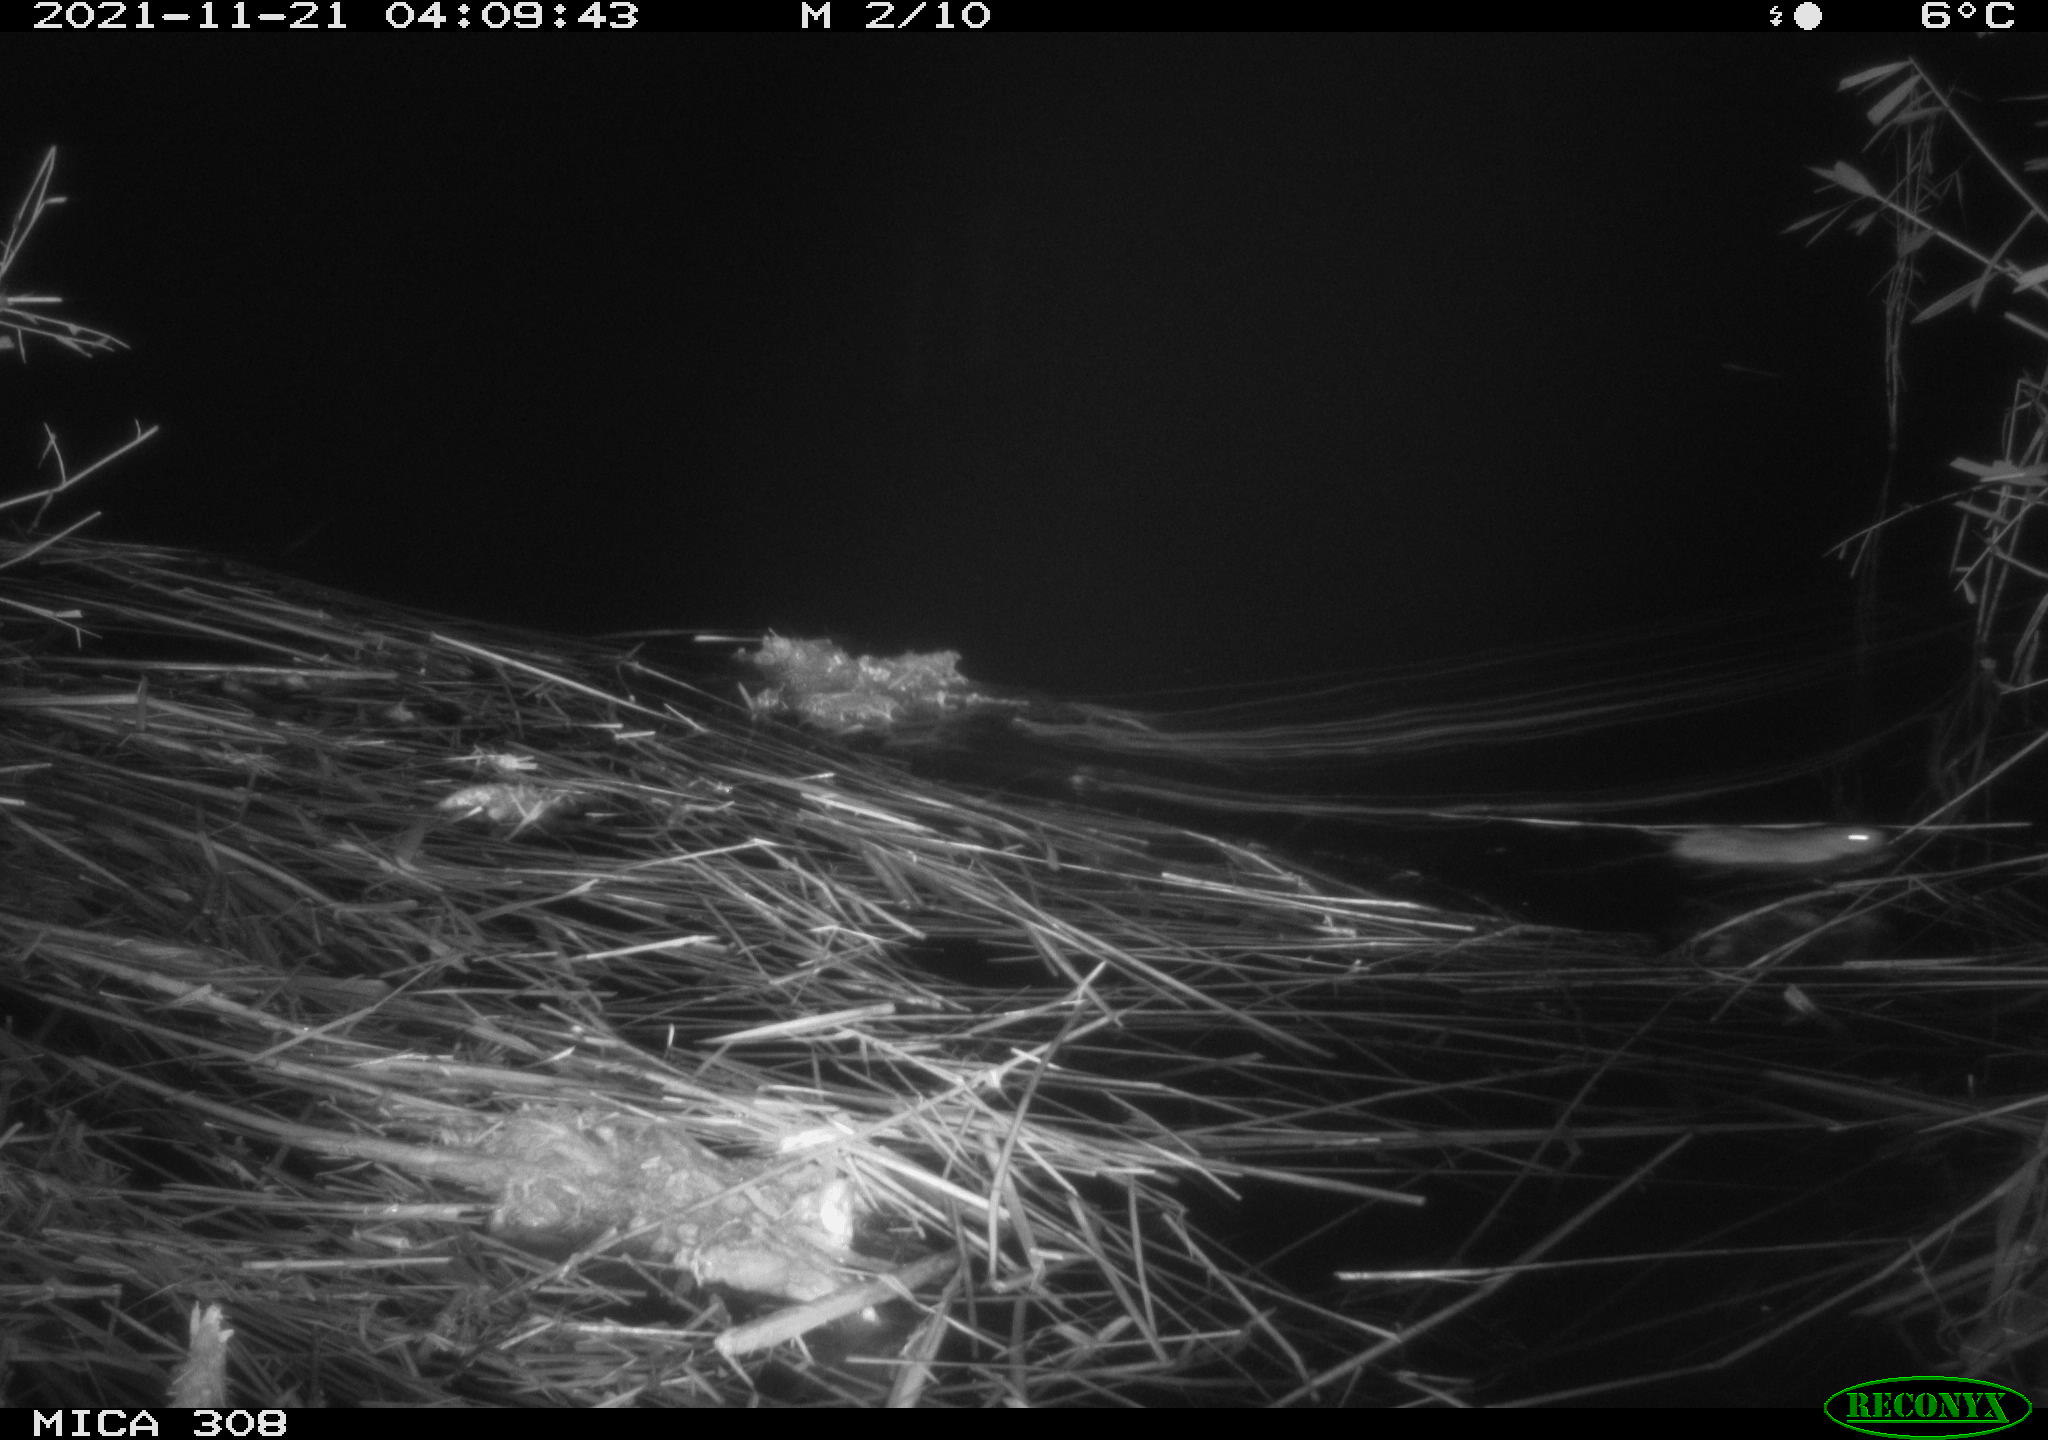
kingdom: Animalia
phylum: Chordata
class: Mammalia
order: Rodentia
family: Muridae
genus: Rattus
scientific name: Rattus norvegicus
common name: Brown rat
